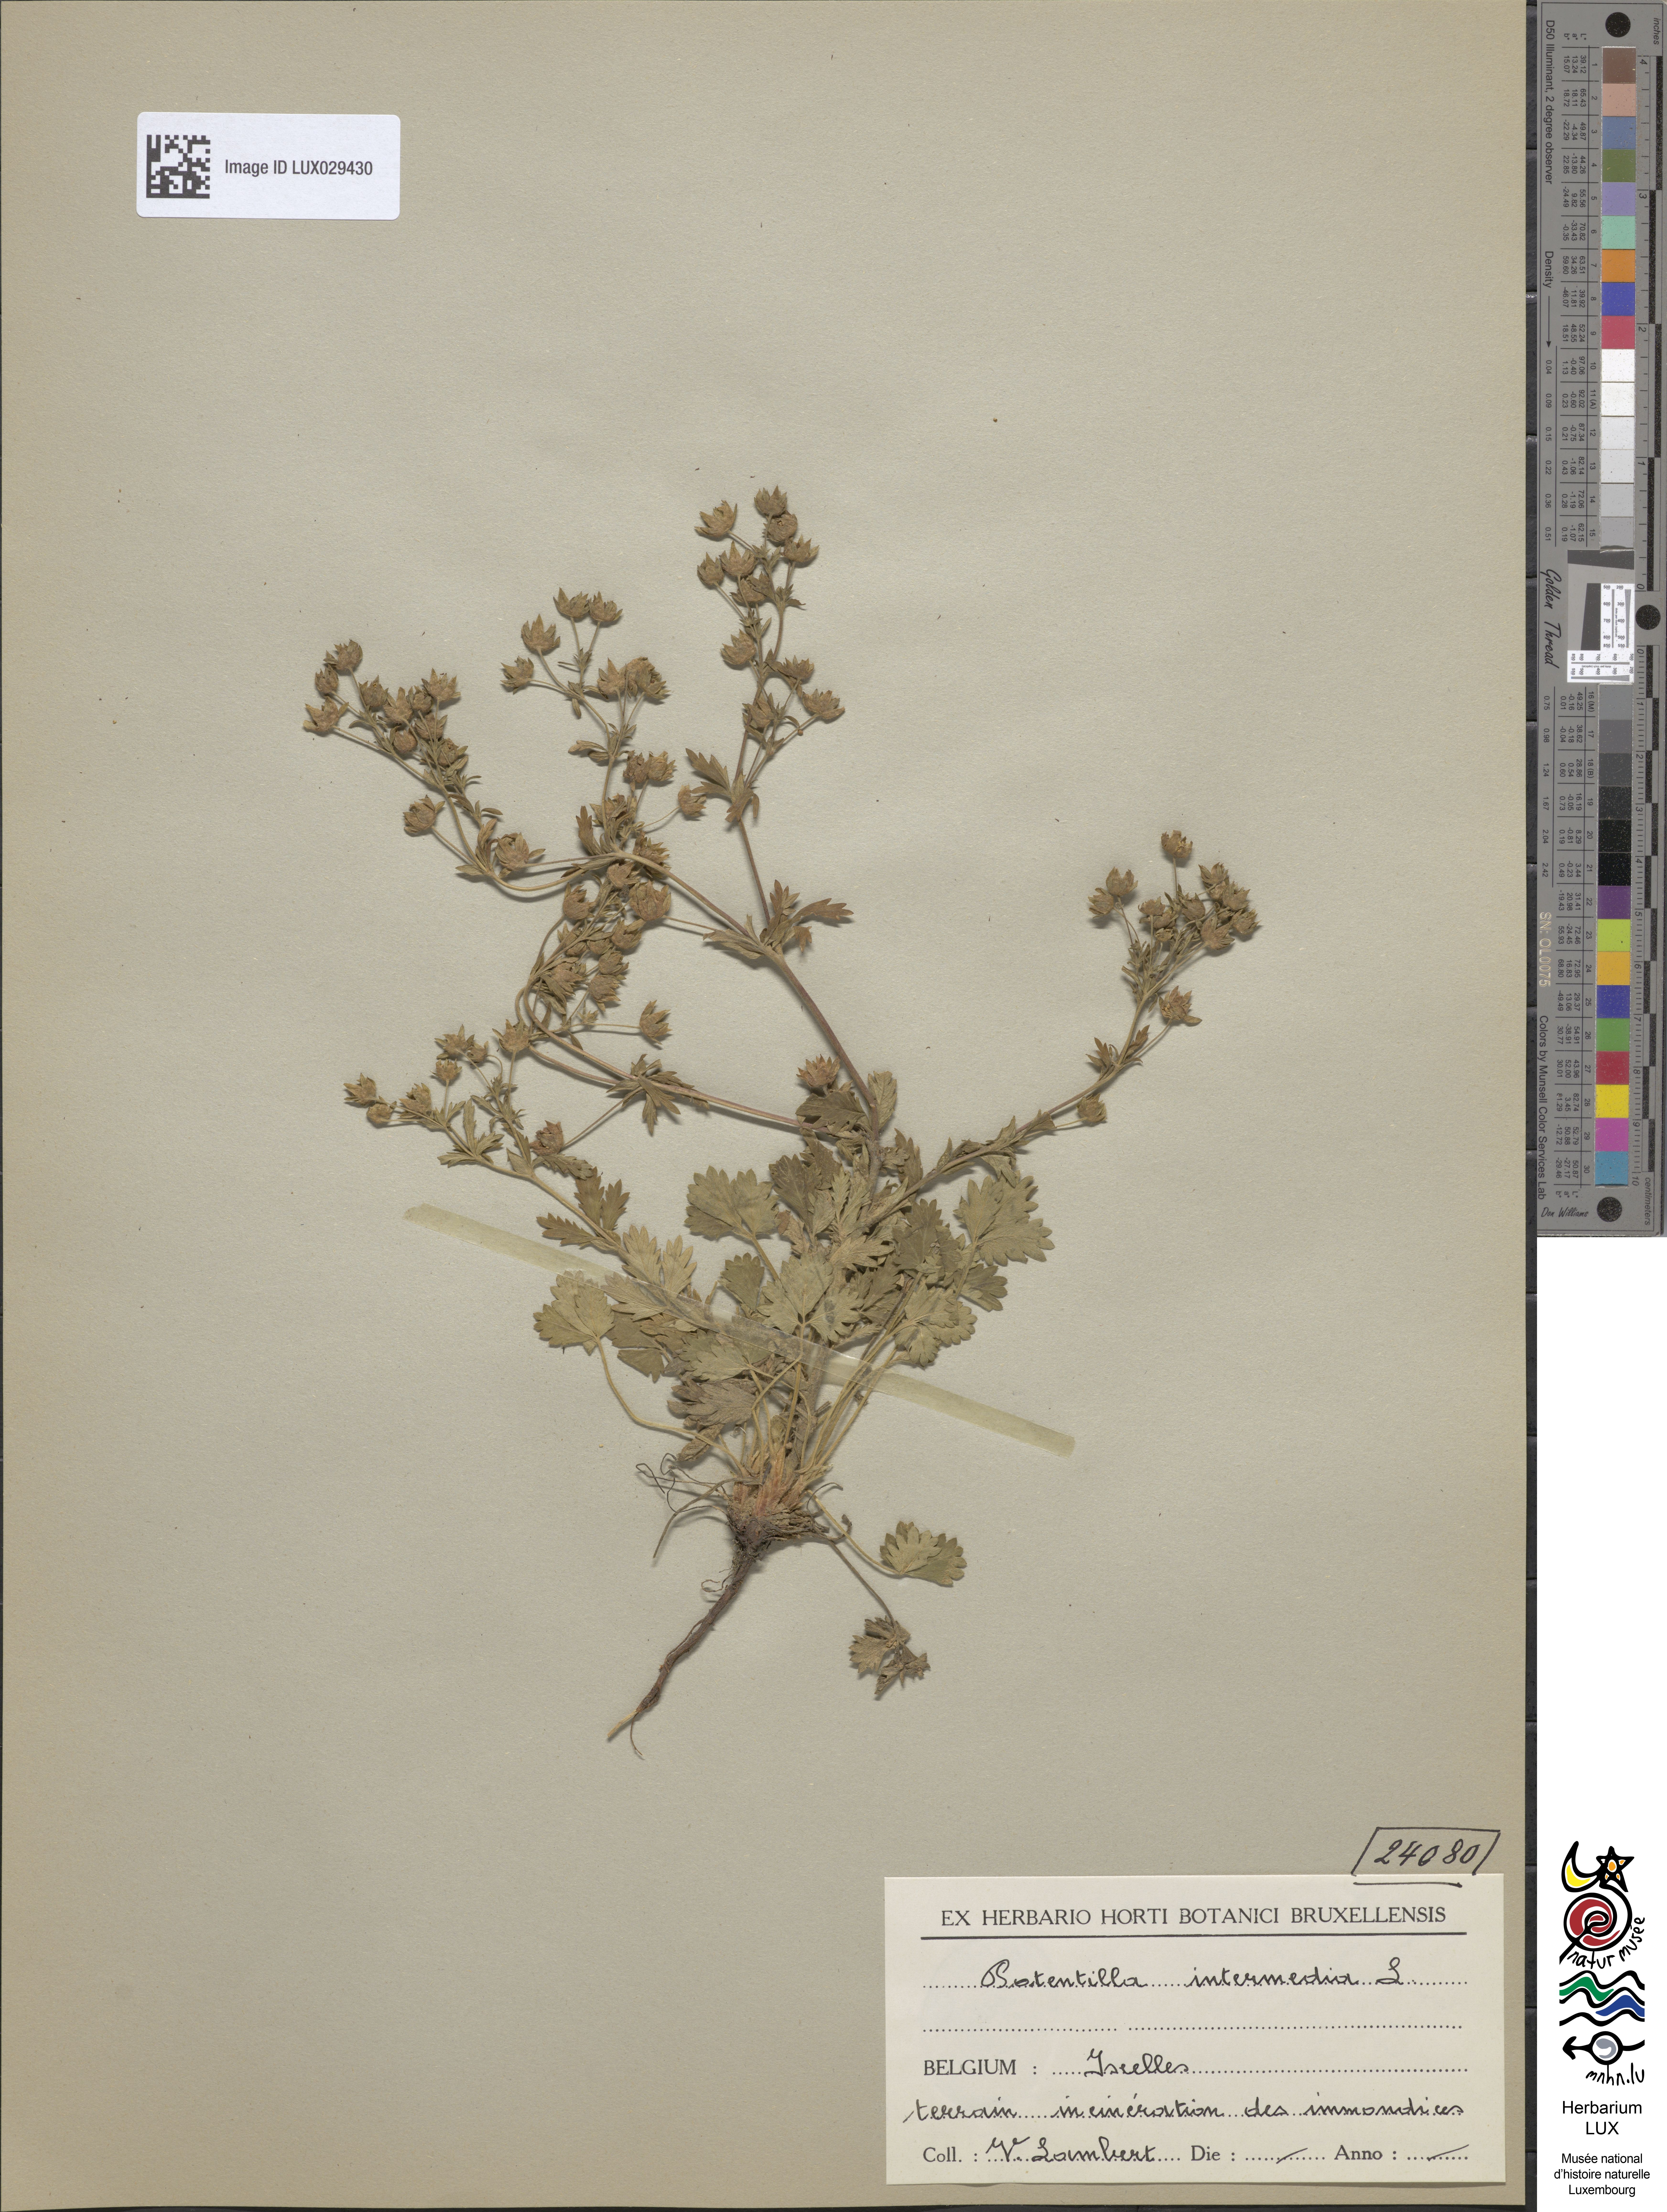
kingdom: Plantae
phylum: Tracheophyta
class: Magnoliopsida
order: Rosales
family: Rosaceae
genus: Potentilla
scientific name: Potentilla intermedia
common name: Downy cinquefoil
